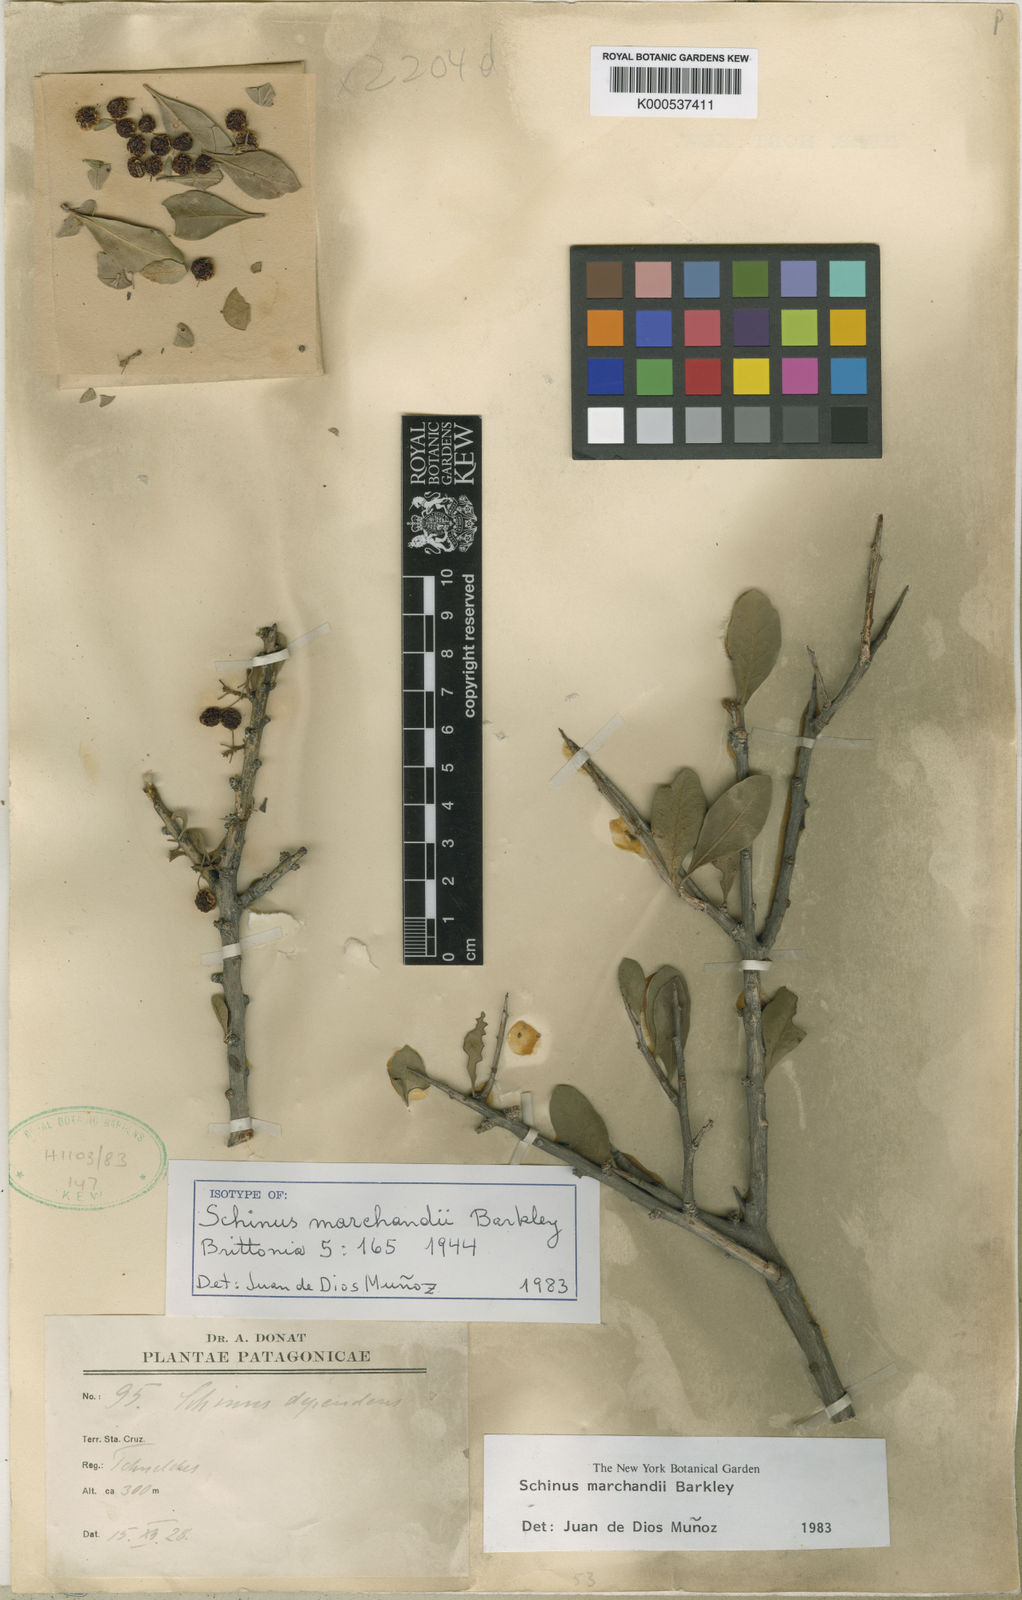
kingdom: Plantae
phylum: Tracheophyta
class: Magnoliopsida
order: Sapindales
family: Anacardiaceae
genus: Schinus
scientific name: Schinus marchandii
